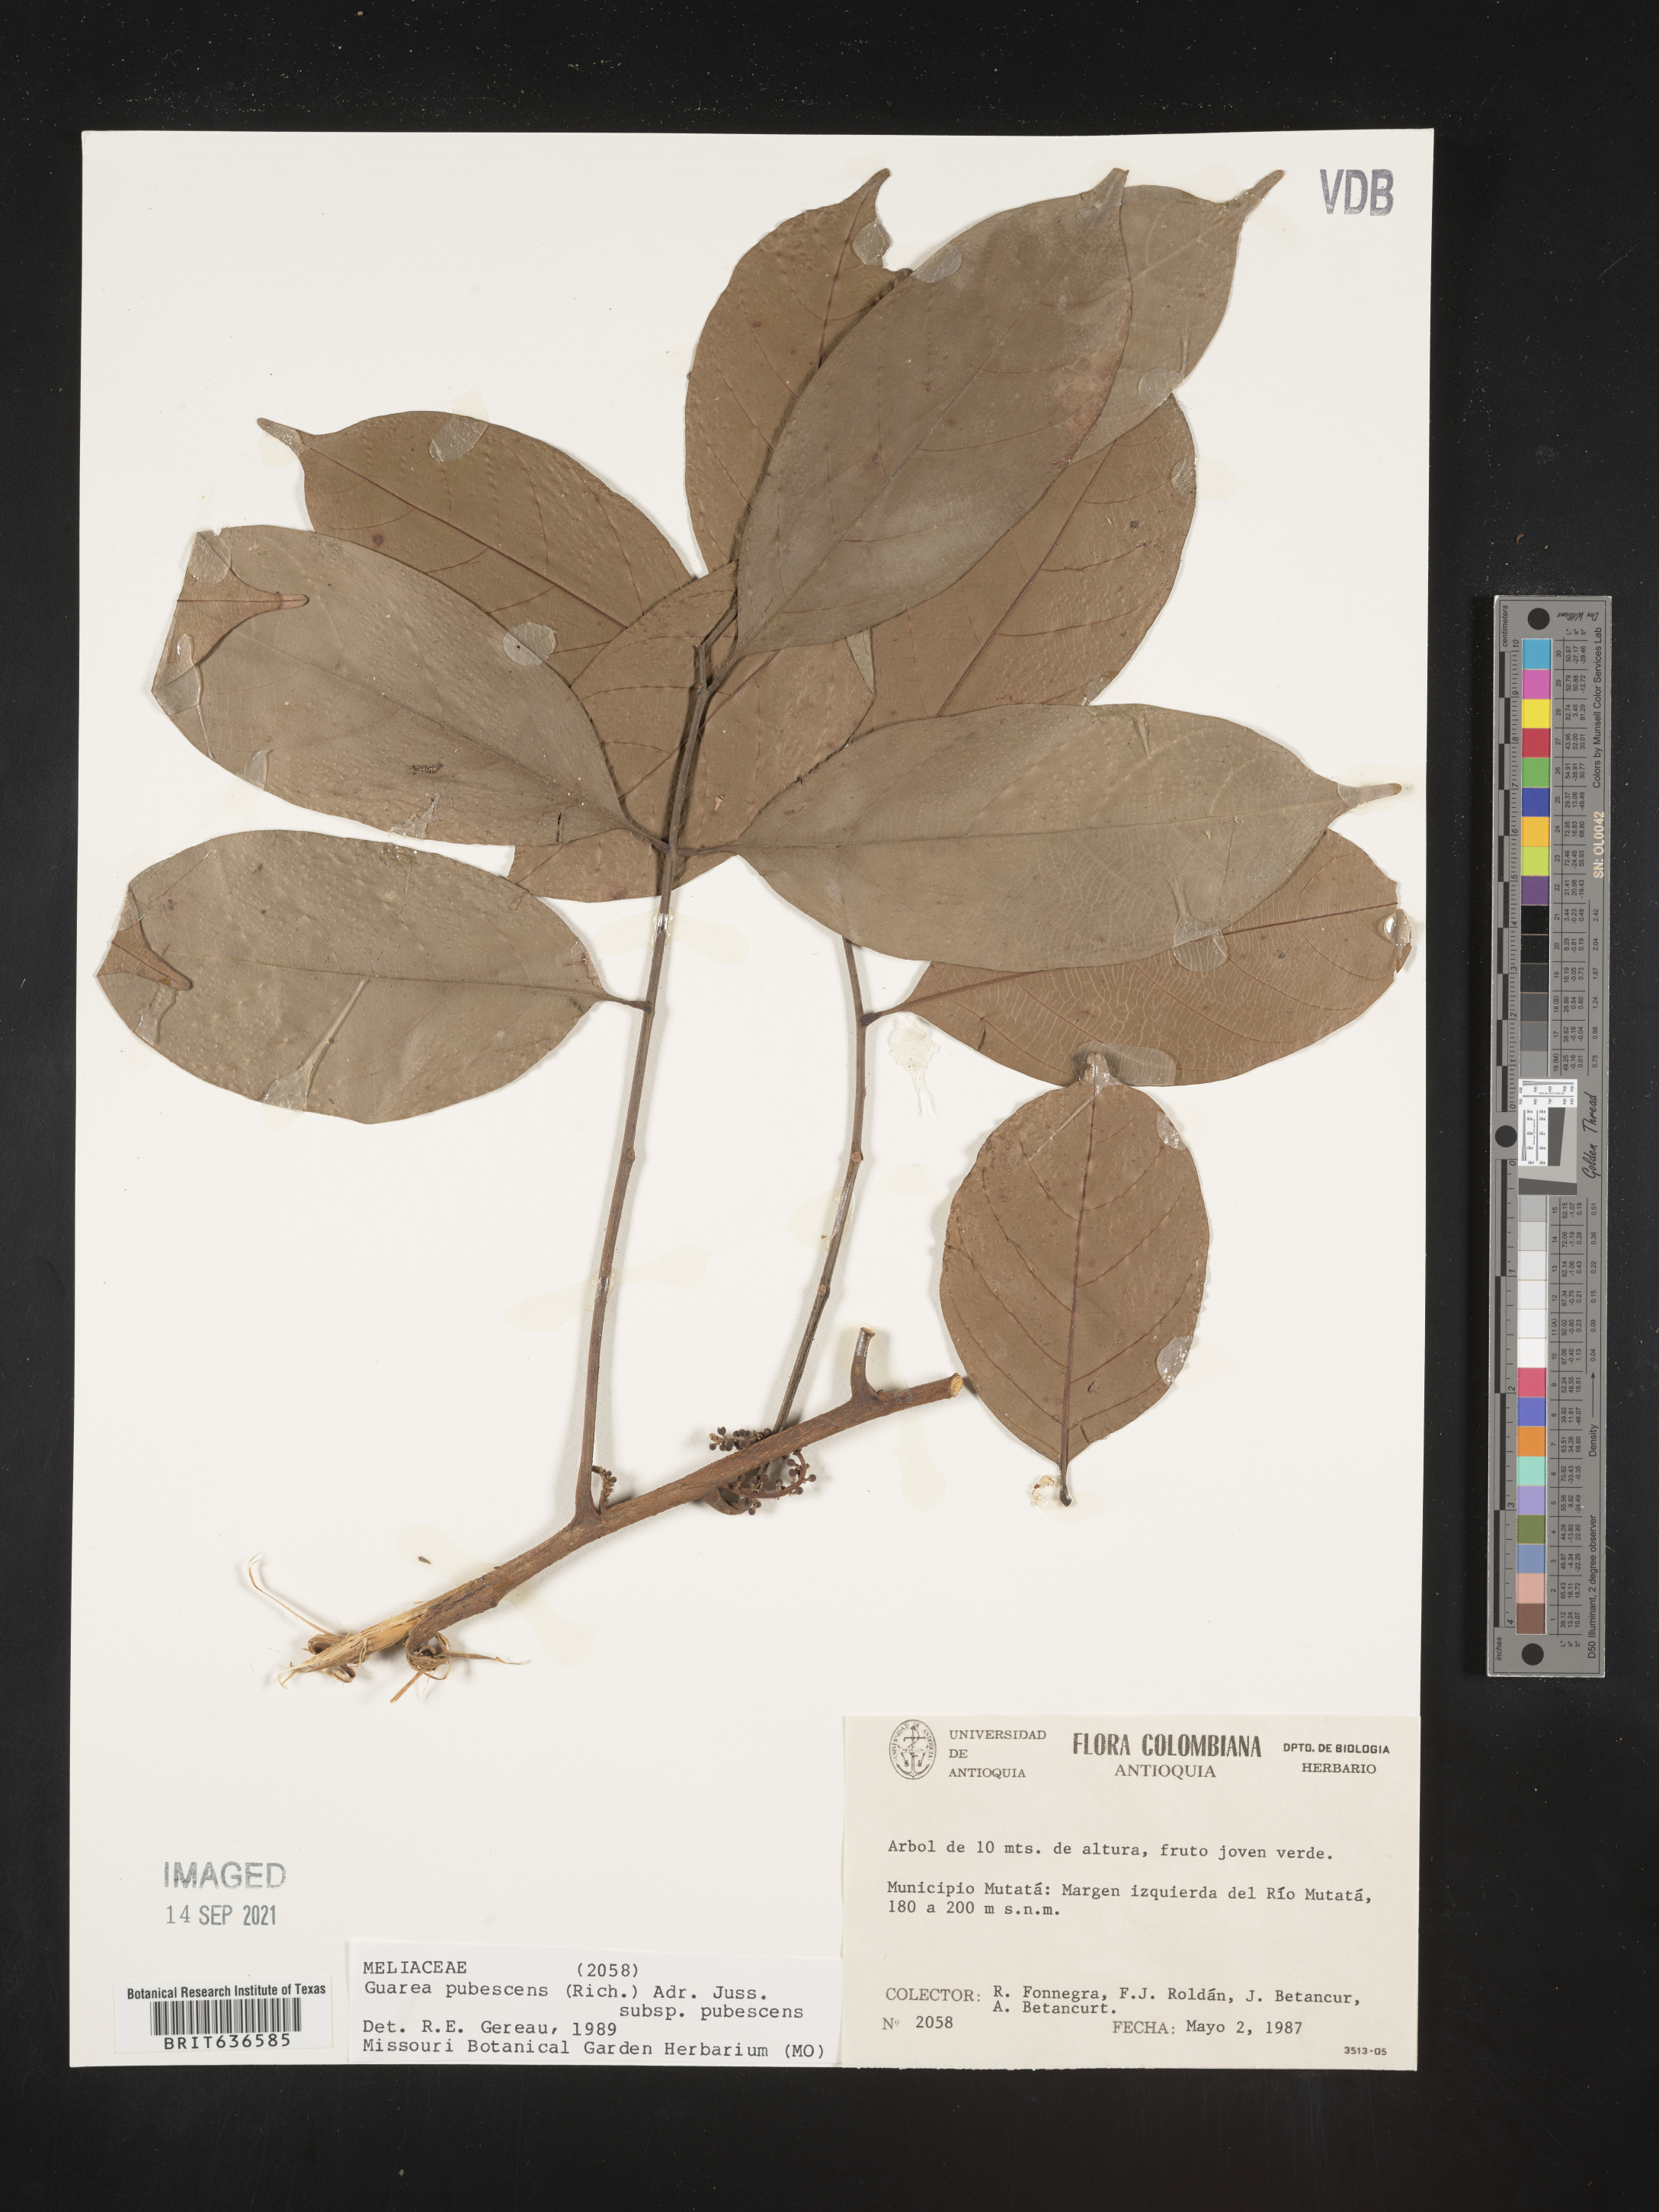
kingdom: Plantae
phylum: Tracheophyta
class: Magnoliopsida
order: Sapindales
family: Meliaceae
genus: Guarea
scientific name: Guarea
